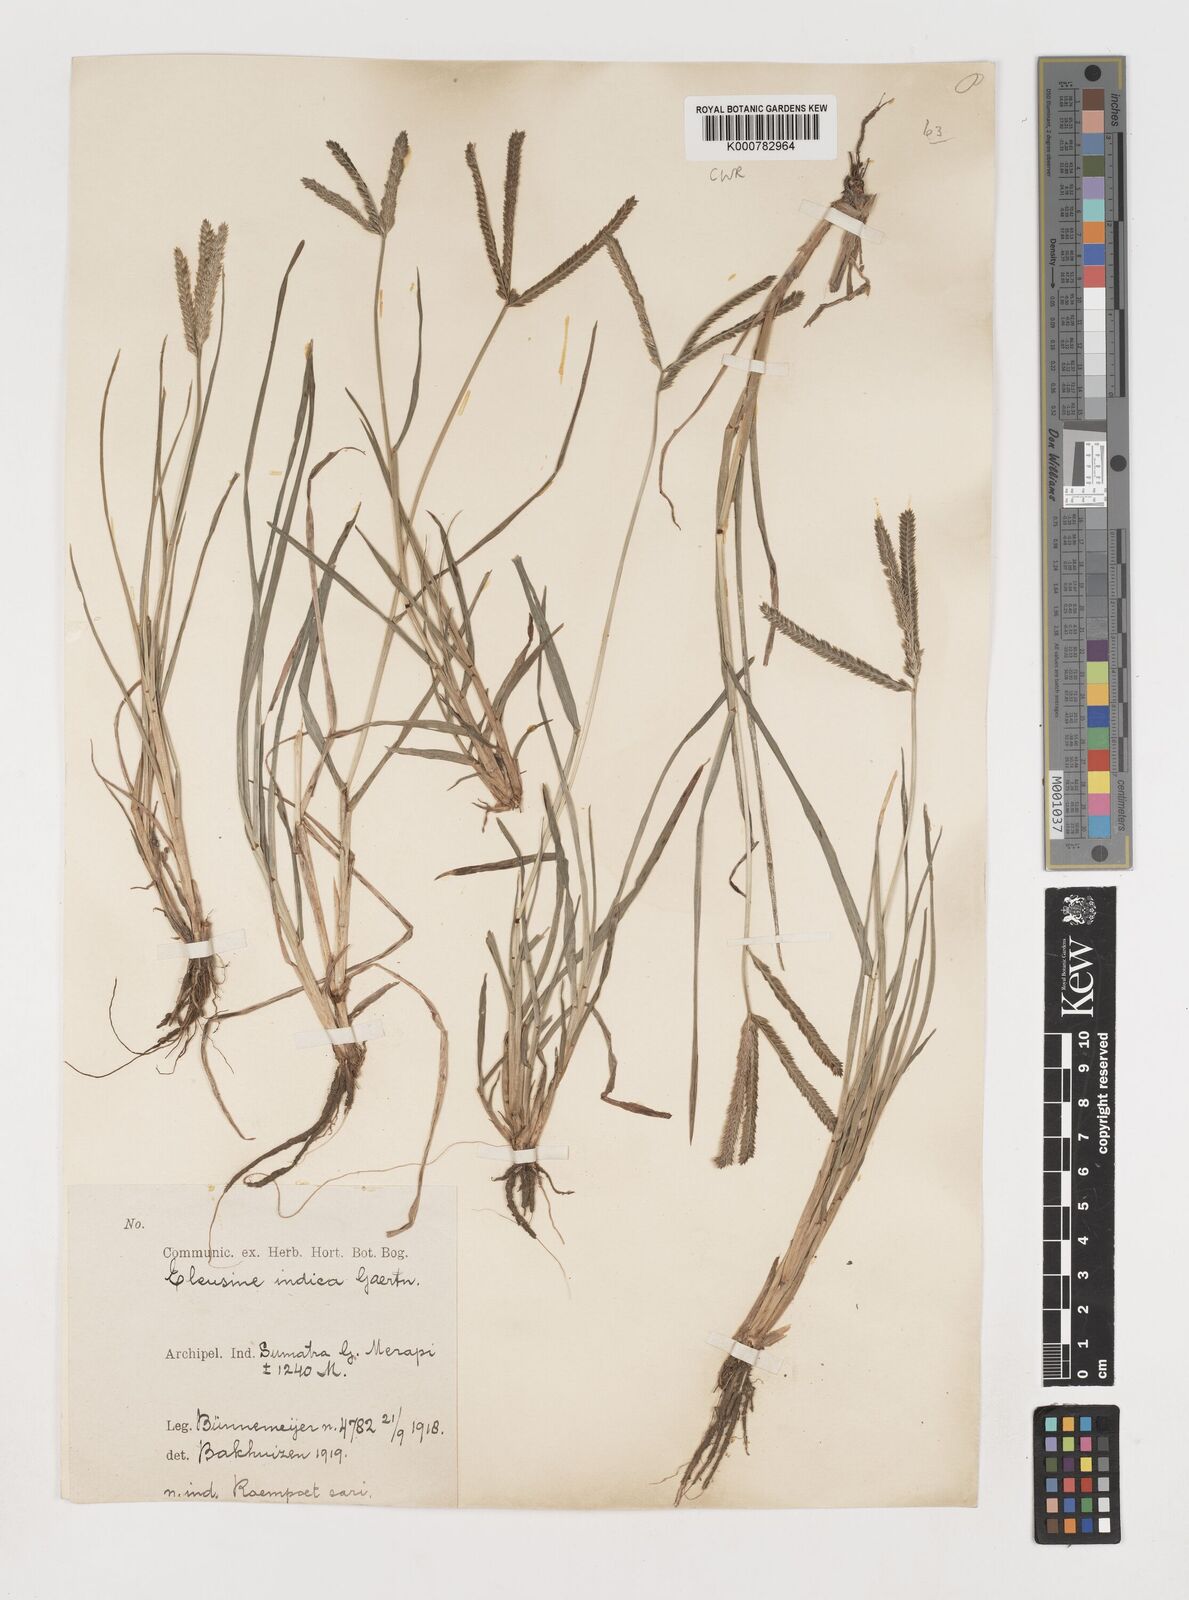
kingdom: Plantae
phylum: Tracheophyta
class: Liliopsida
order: Poales
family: Poaceae
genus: Eleusine
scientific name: Eleusine indica
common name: Yard-grass
